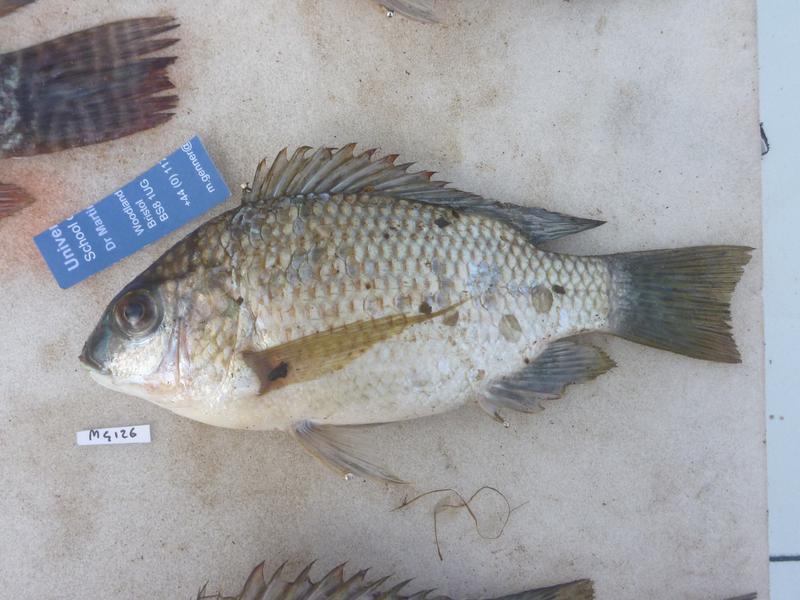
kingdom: Animalia
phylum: Chordata
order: Perciformes
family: Cichlidae
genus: Oreochromis
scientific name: Oreochromis tanganicae
